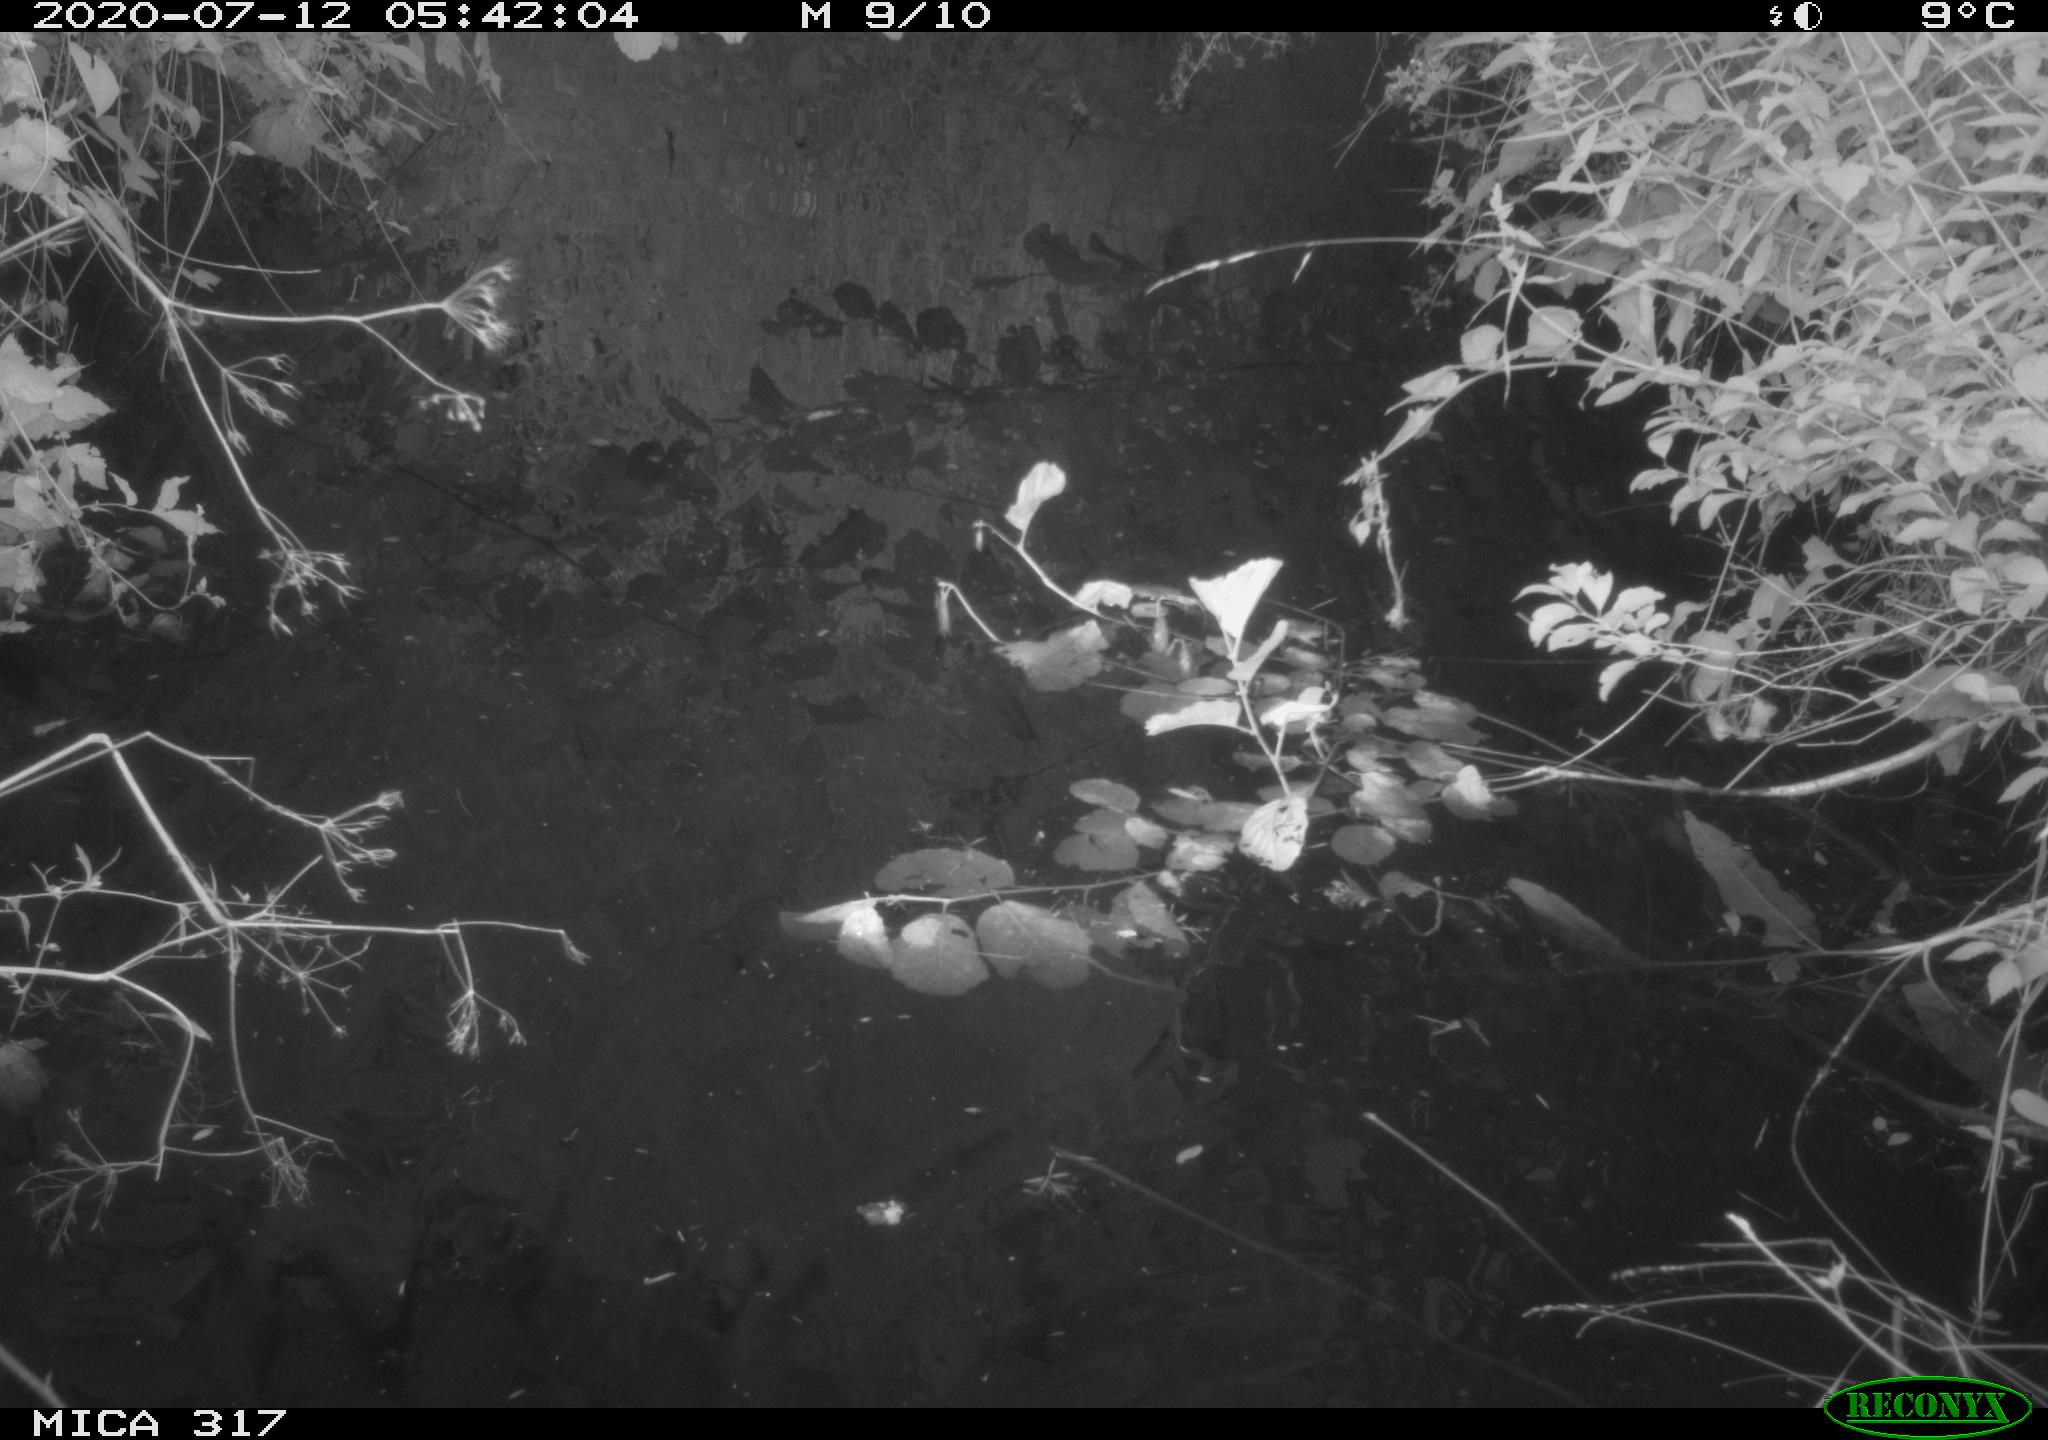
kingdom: Animalia
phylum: Chordata
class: Aves
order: Gruiformes
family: Rallidae
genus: Gallinula
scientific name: Gallinula chloropus
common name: Common moorhen
